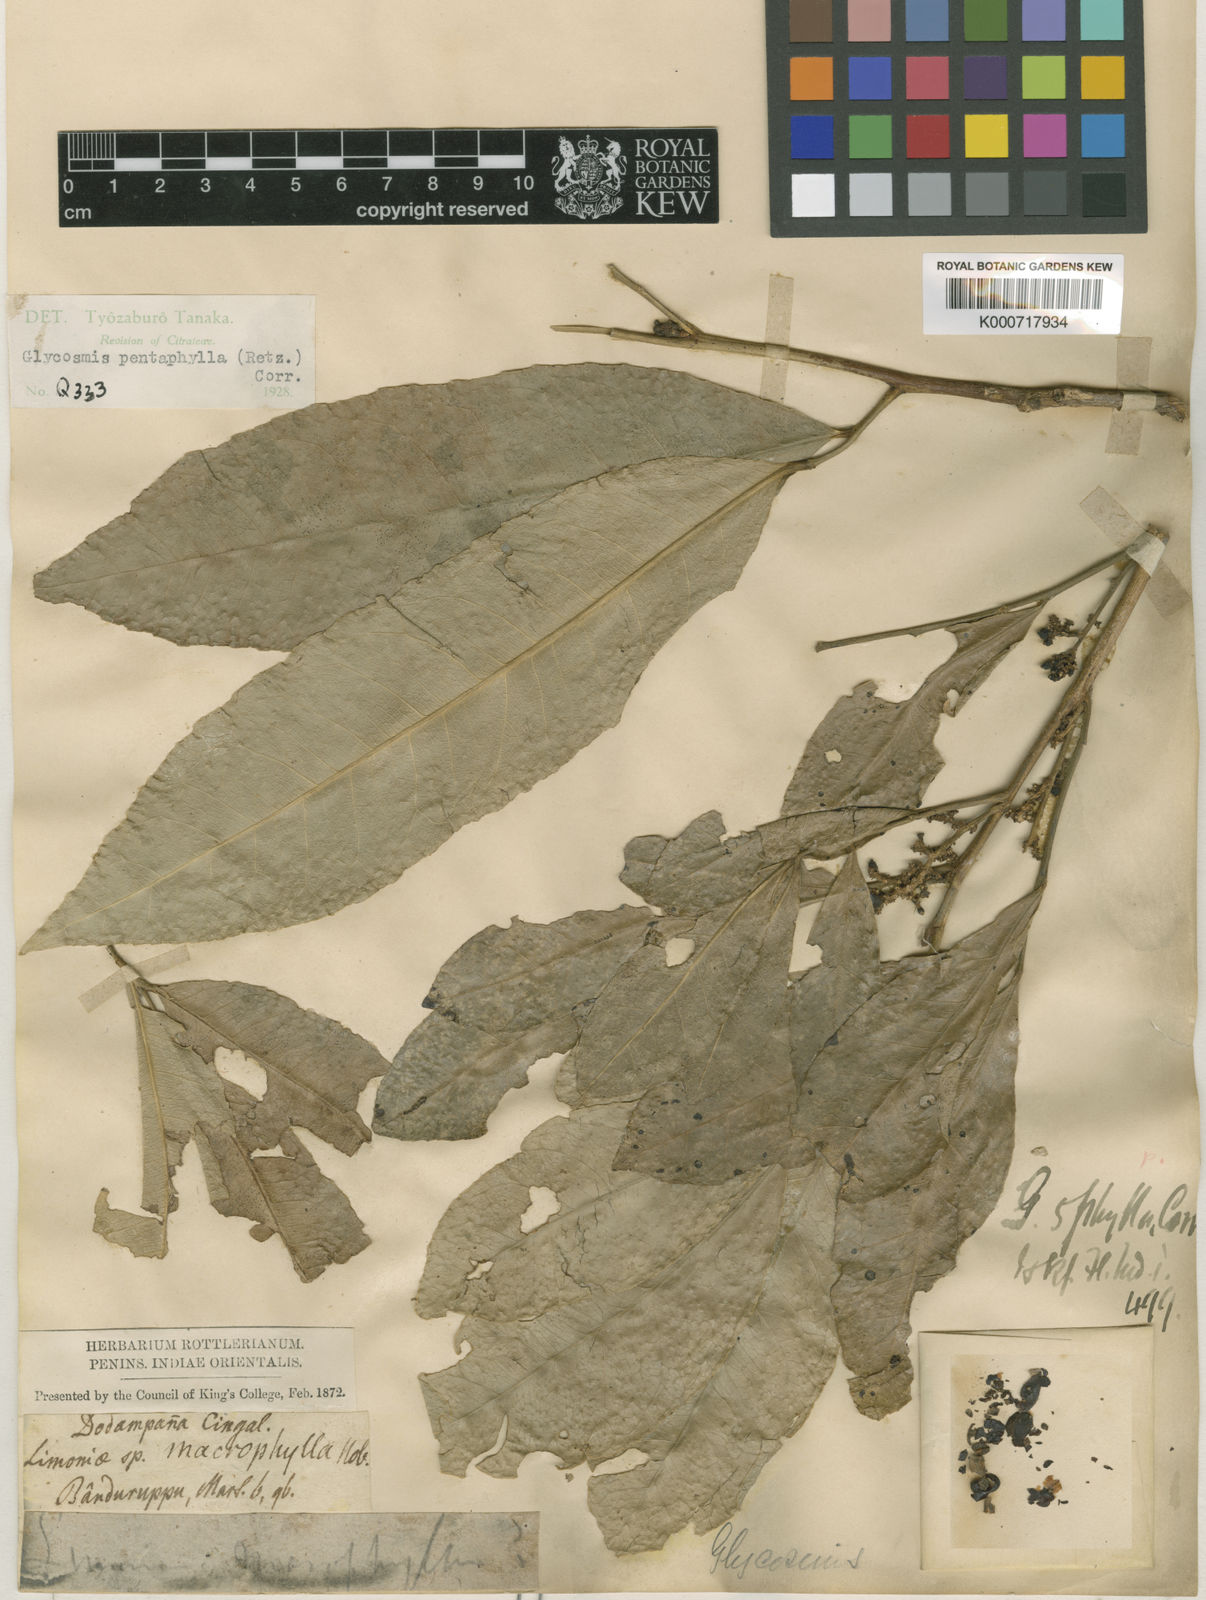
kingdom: Plantae
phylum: Tracheophyta
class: Magnoliopsida
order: Sapindales
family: Rutaceae
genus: Glycosmis
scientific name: Glycosmis
